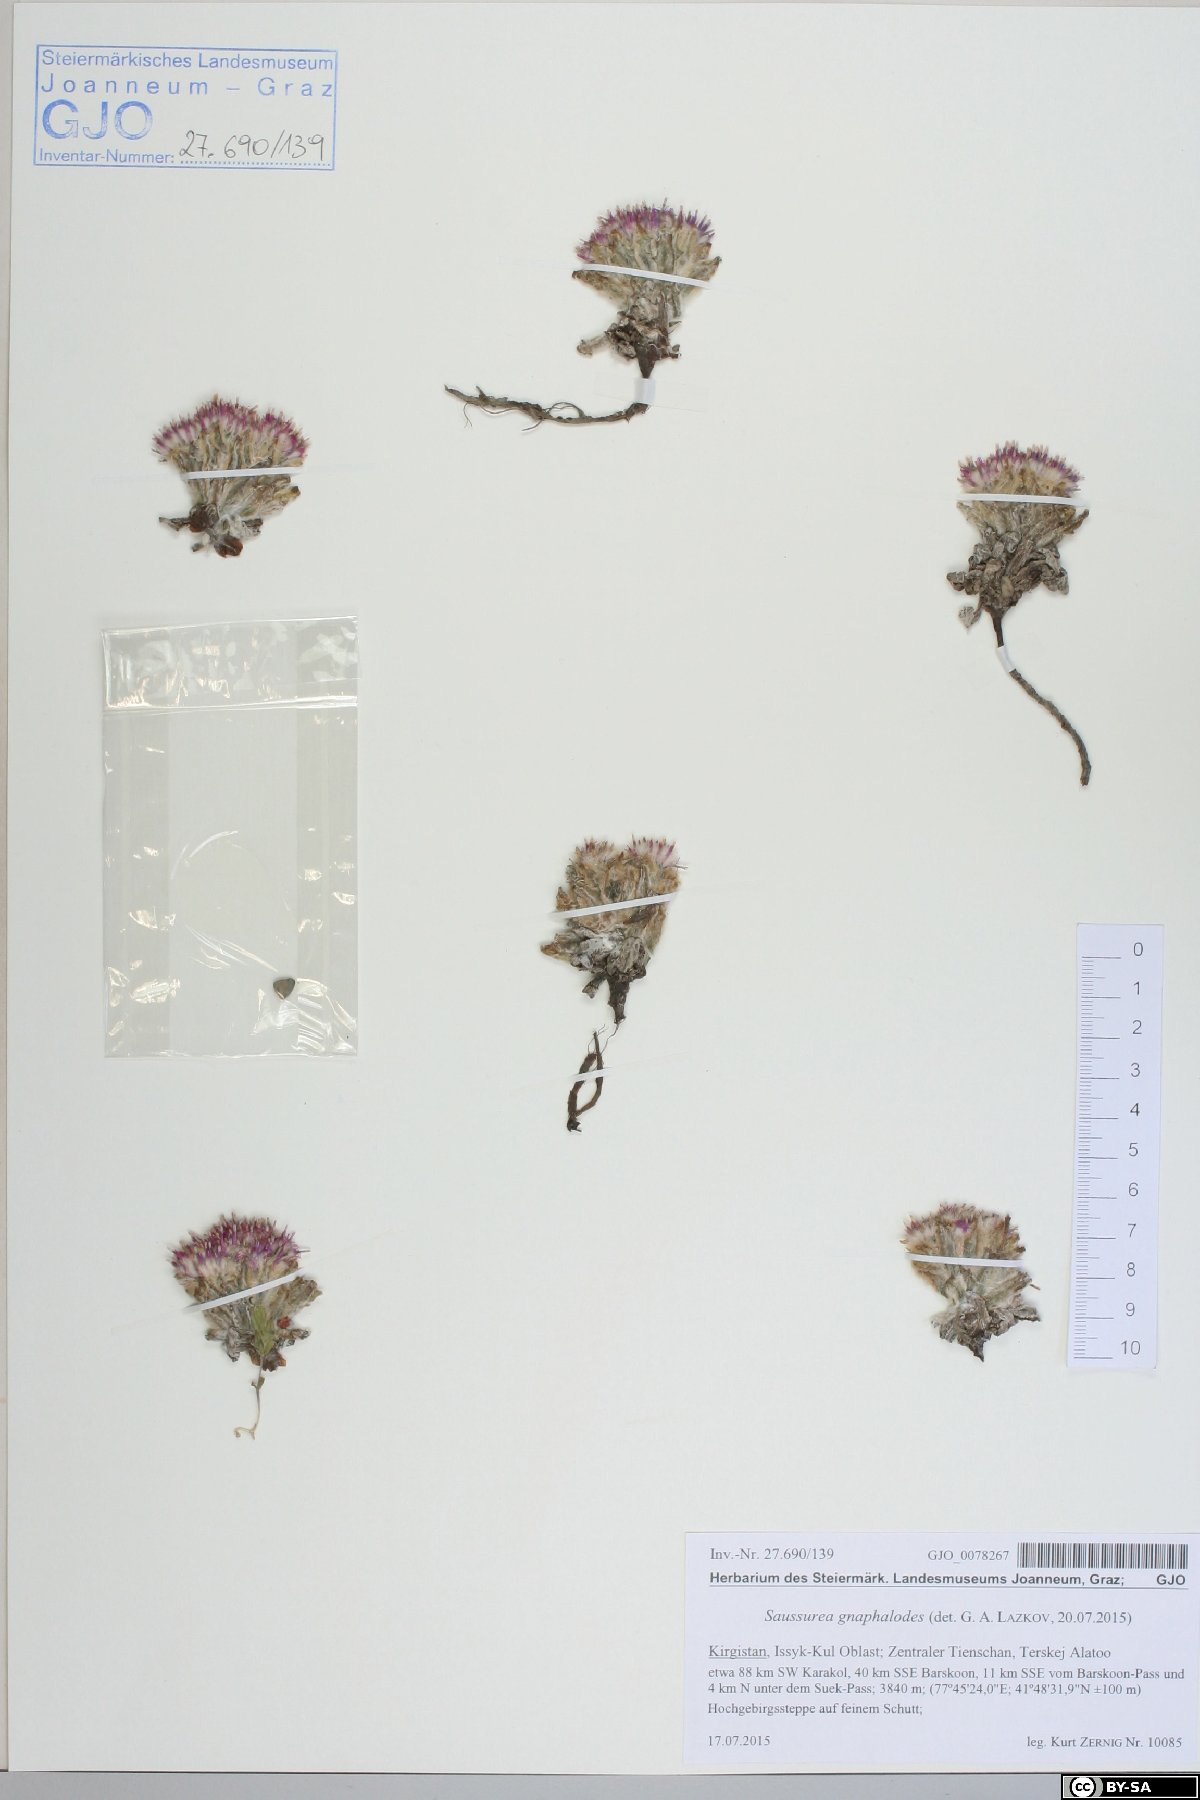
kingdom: Plantae
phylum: Tracheophyta
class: Magnoliopsida
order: Asterales
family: Asteraceae
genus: Saussurea
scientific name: Saussurea gnaphalodes
